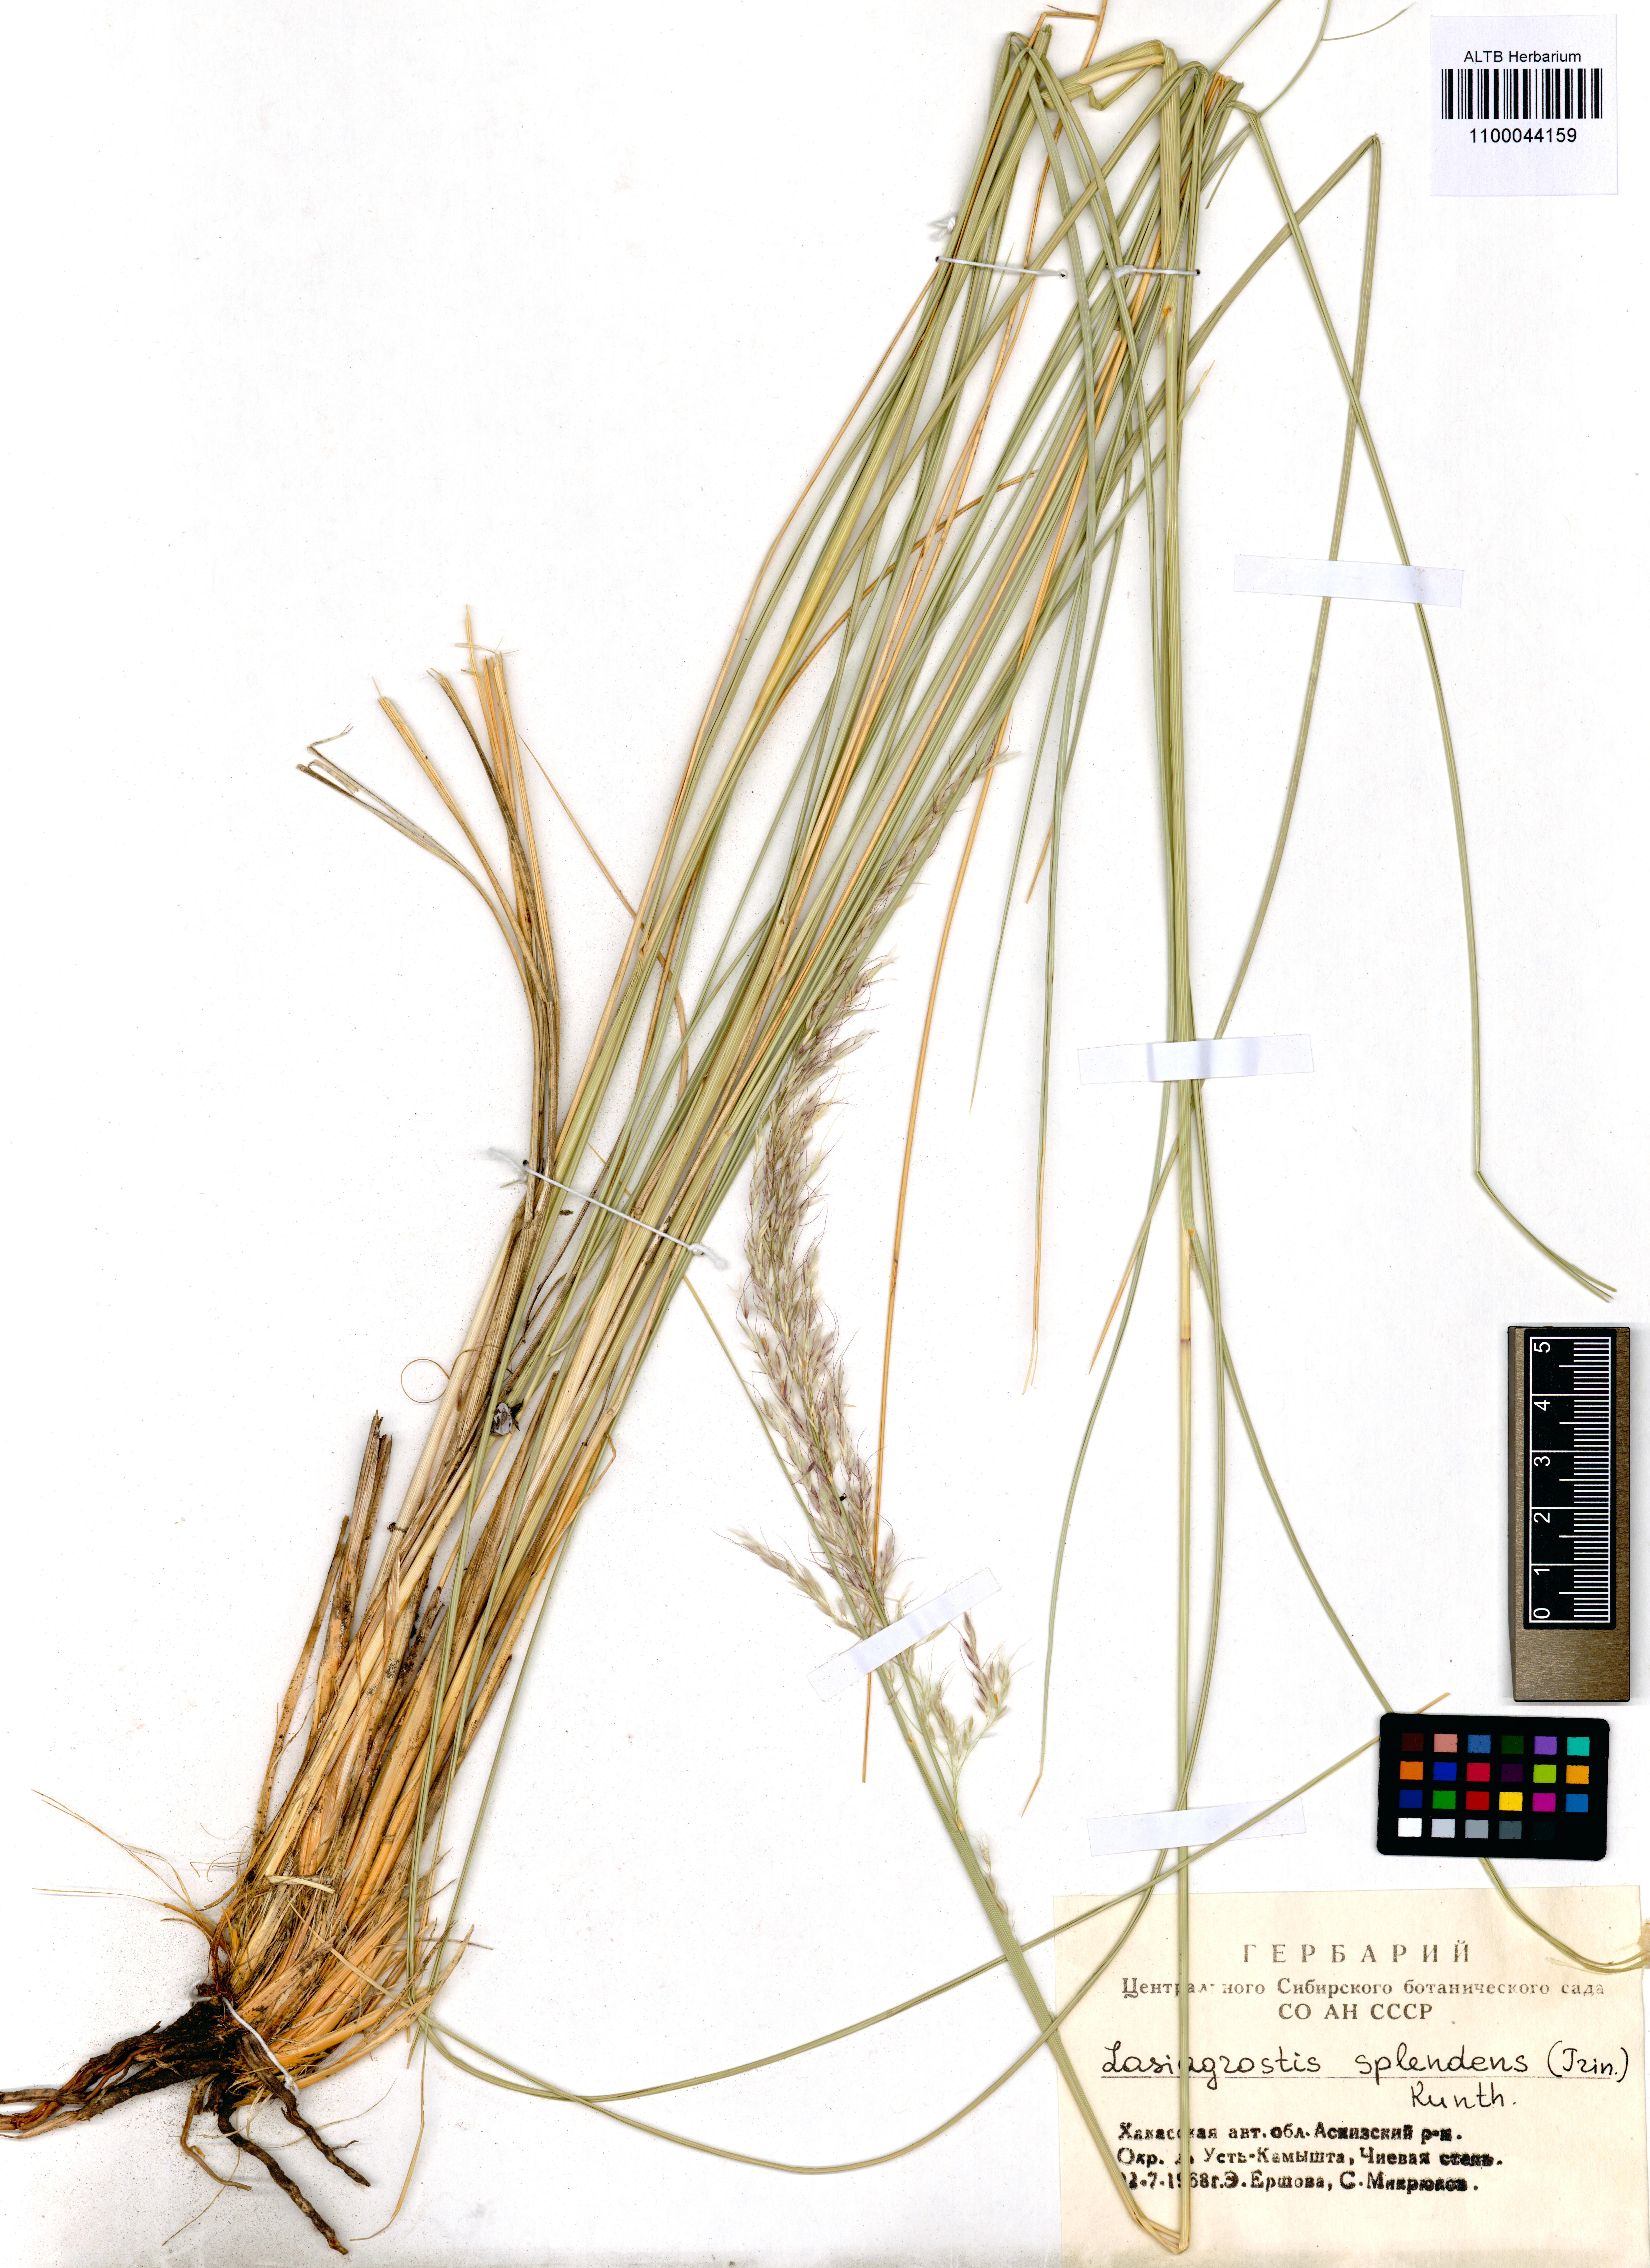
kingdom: Plantae
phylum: Tracheophyta
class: Liliopsida
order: Poales
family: Poaceae
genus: Neotrinia
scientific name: Neotrinia splendens
